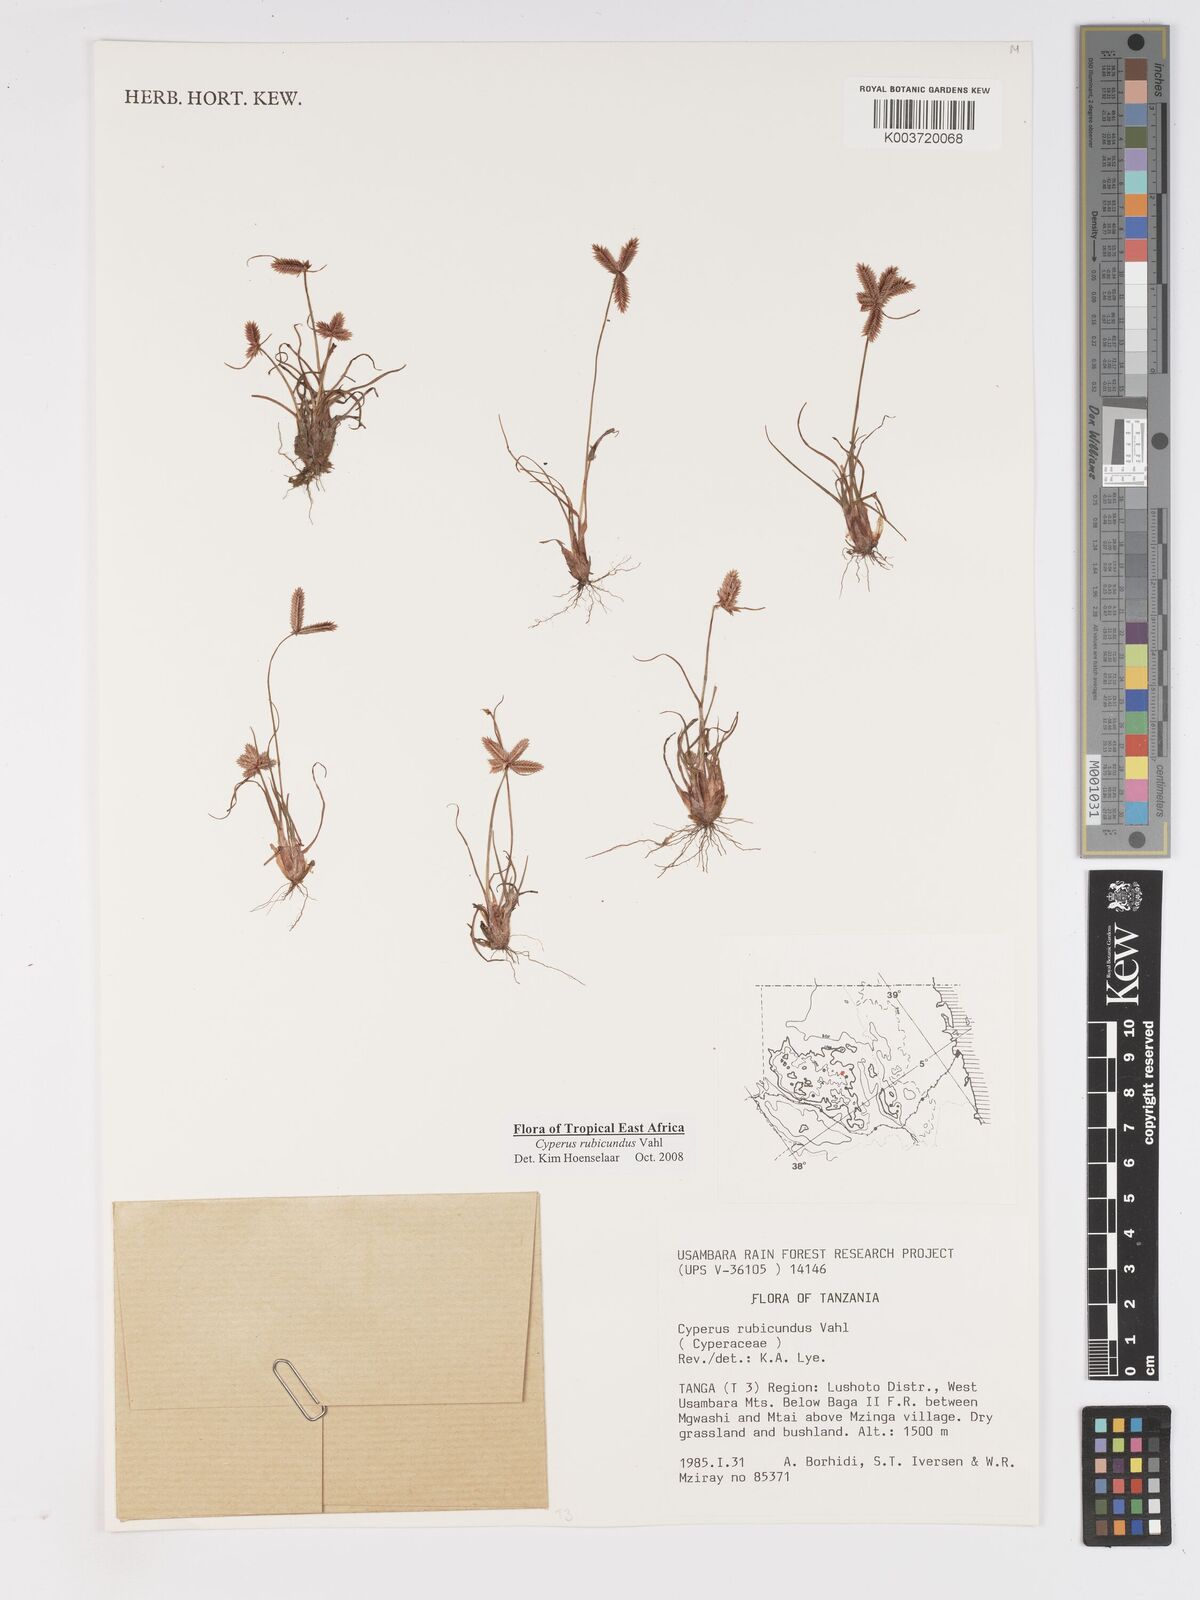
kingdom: Plantae
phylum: Tracheophyta
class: Liliopsida
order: Poales
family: Cyperaceae
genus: Cyperus
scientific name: Cyperus rubicundus
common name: Coco-grass
